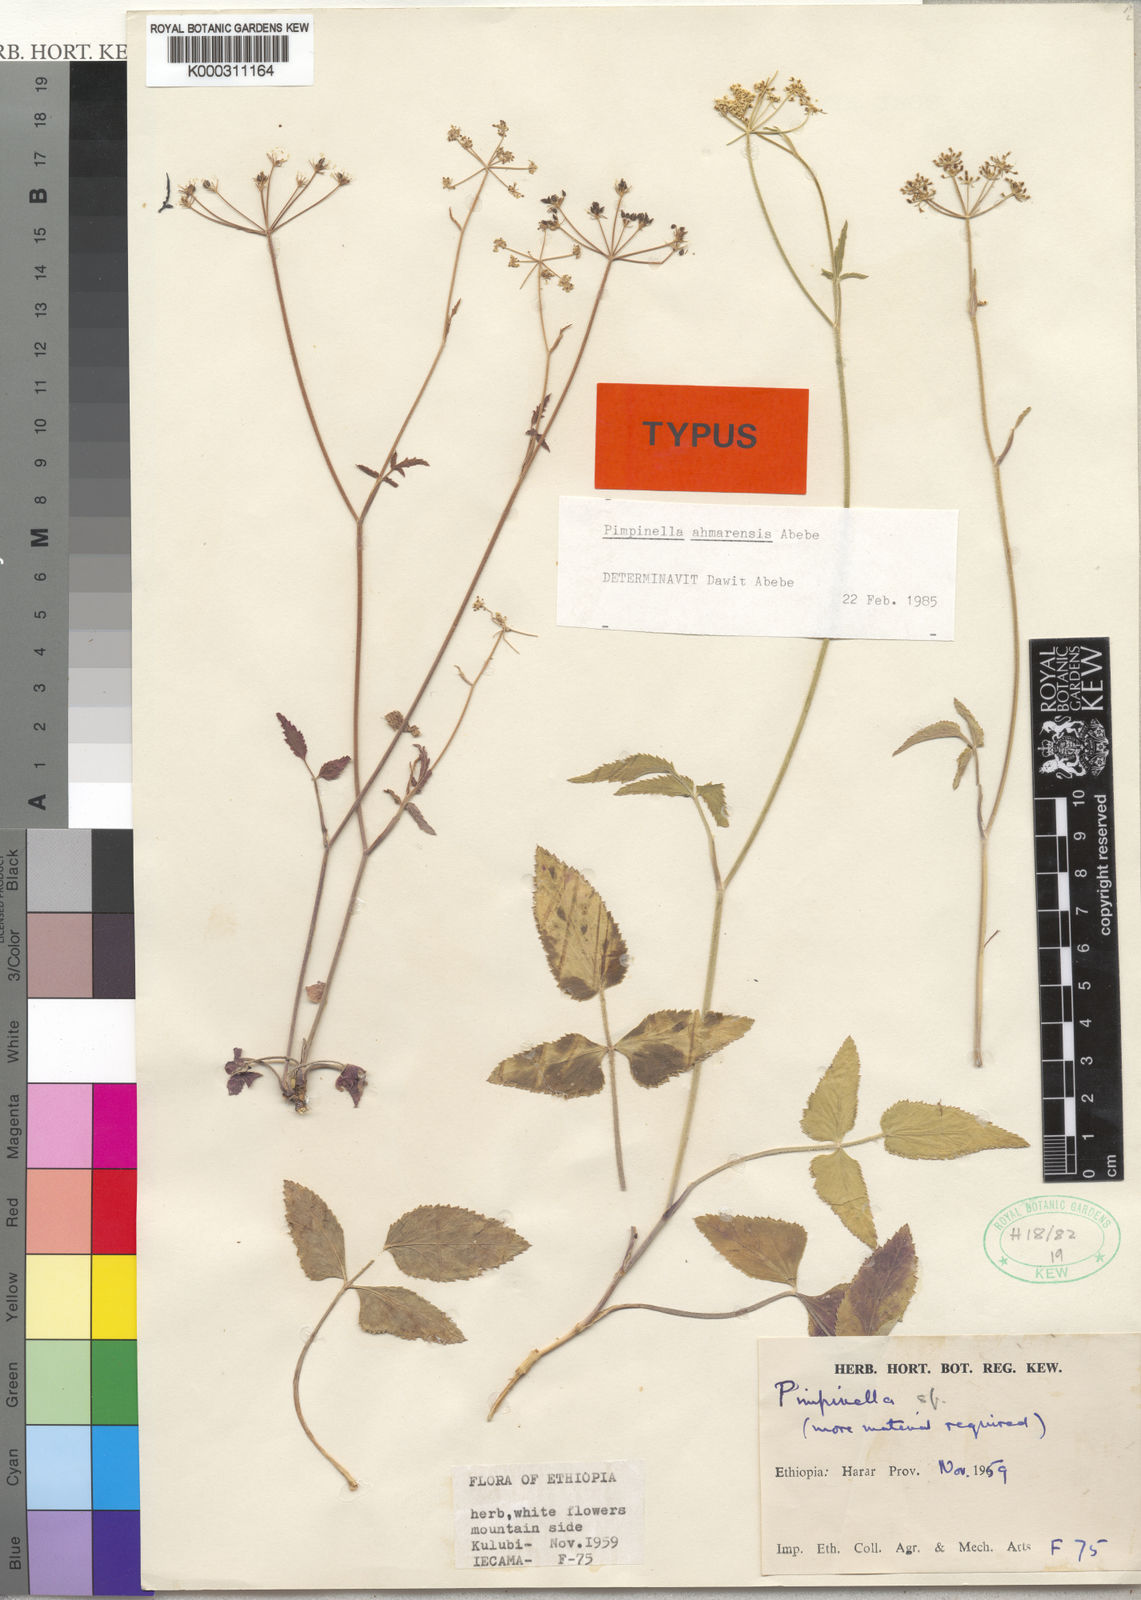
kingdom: Plantae
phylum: Tracheophyta
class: Magnoliopsida
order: Apiales
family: Apiaceae
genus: Pimpinella
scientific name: Pimpinella
